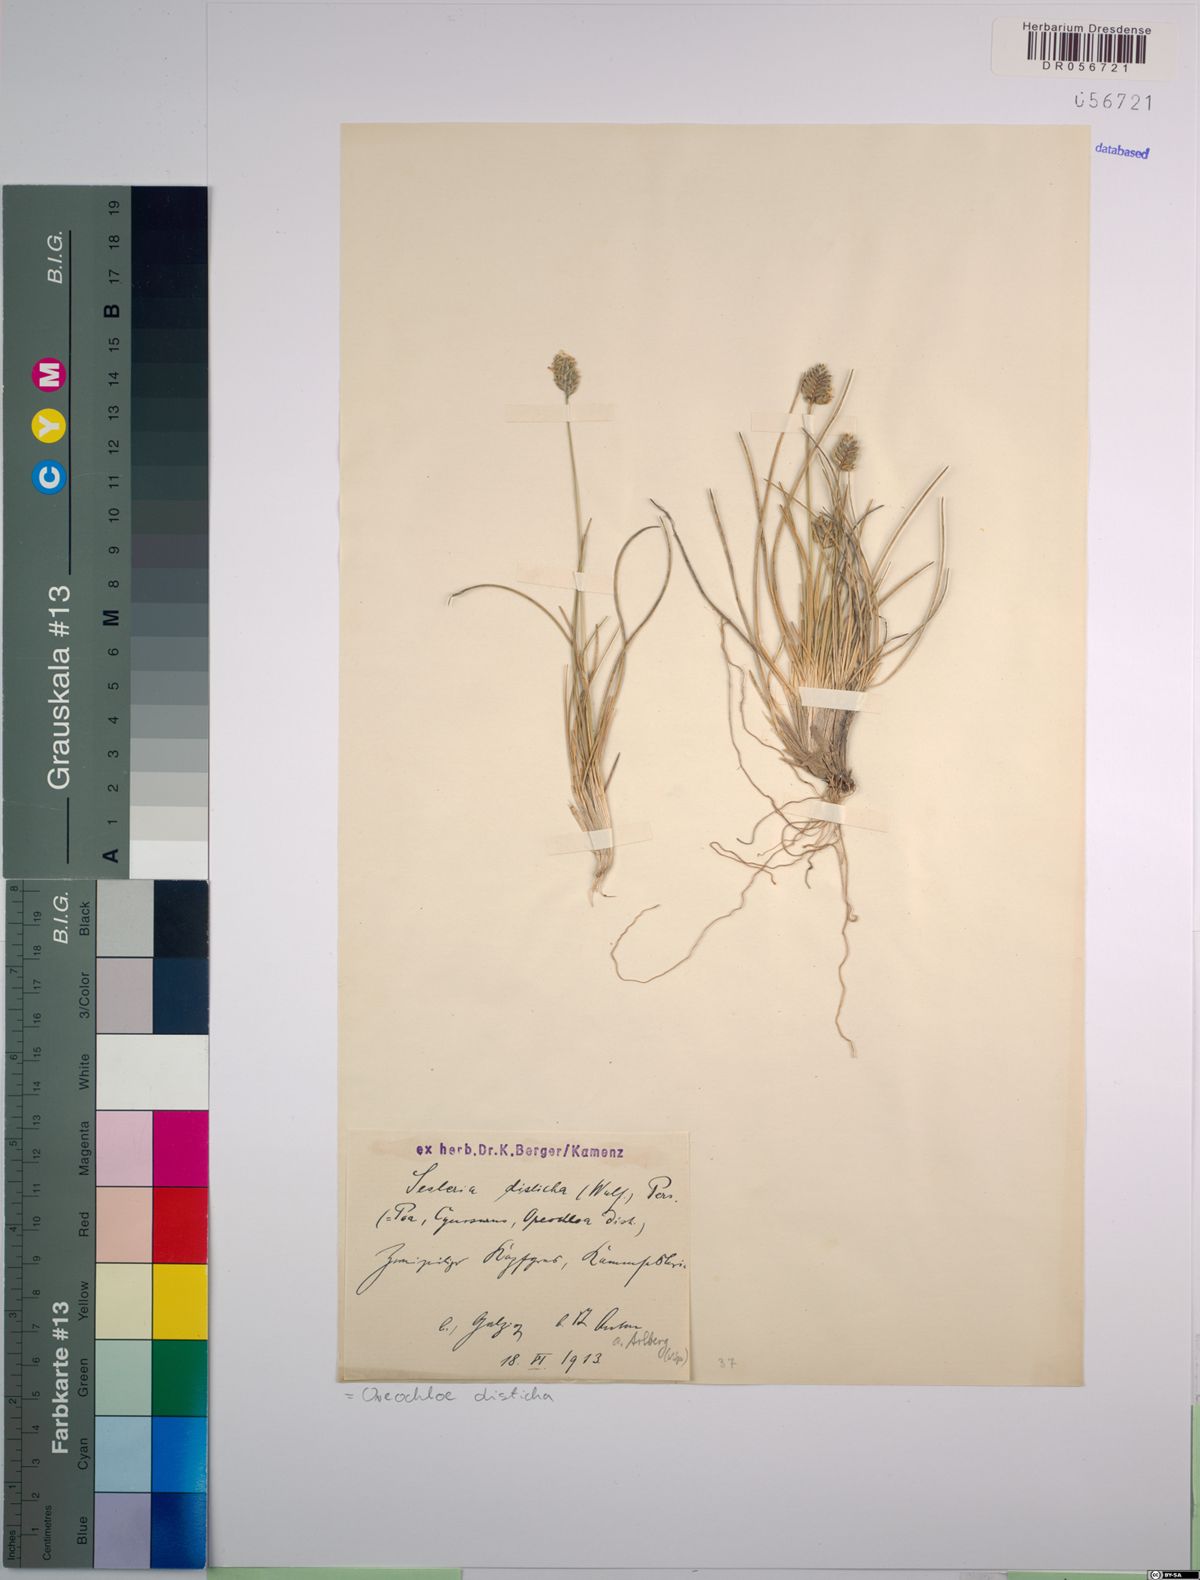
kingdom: Plantae
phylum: Tracheophyta
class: Liliopsida
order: Poales
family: Poaceae
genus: Oreochloa
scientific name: Oreochloa disticha
